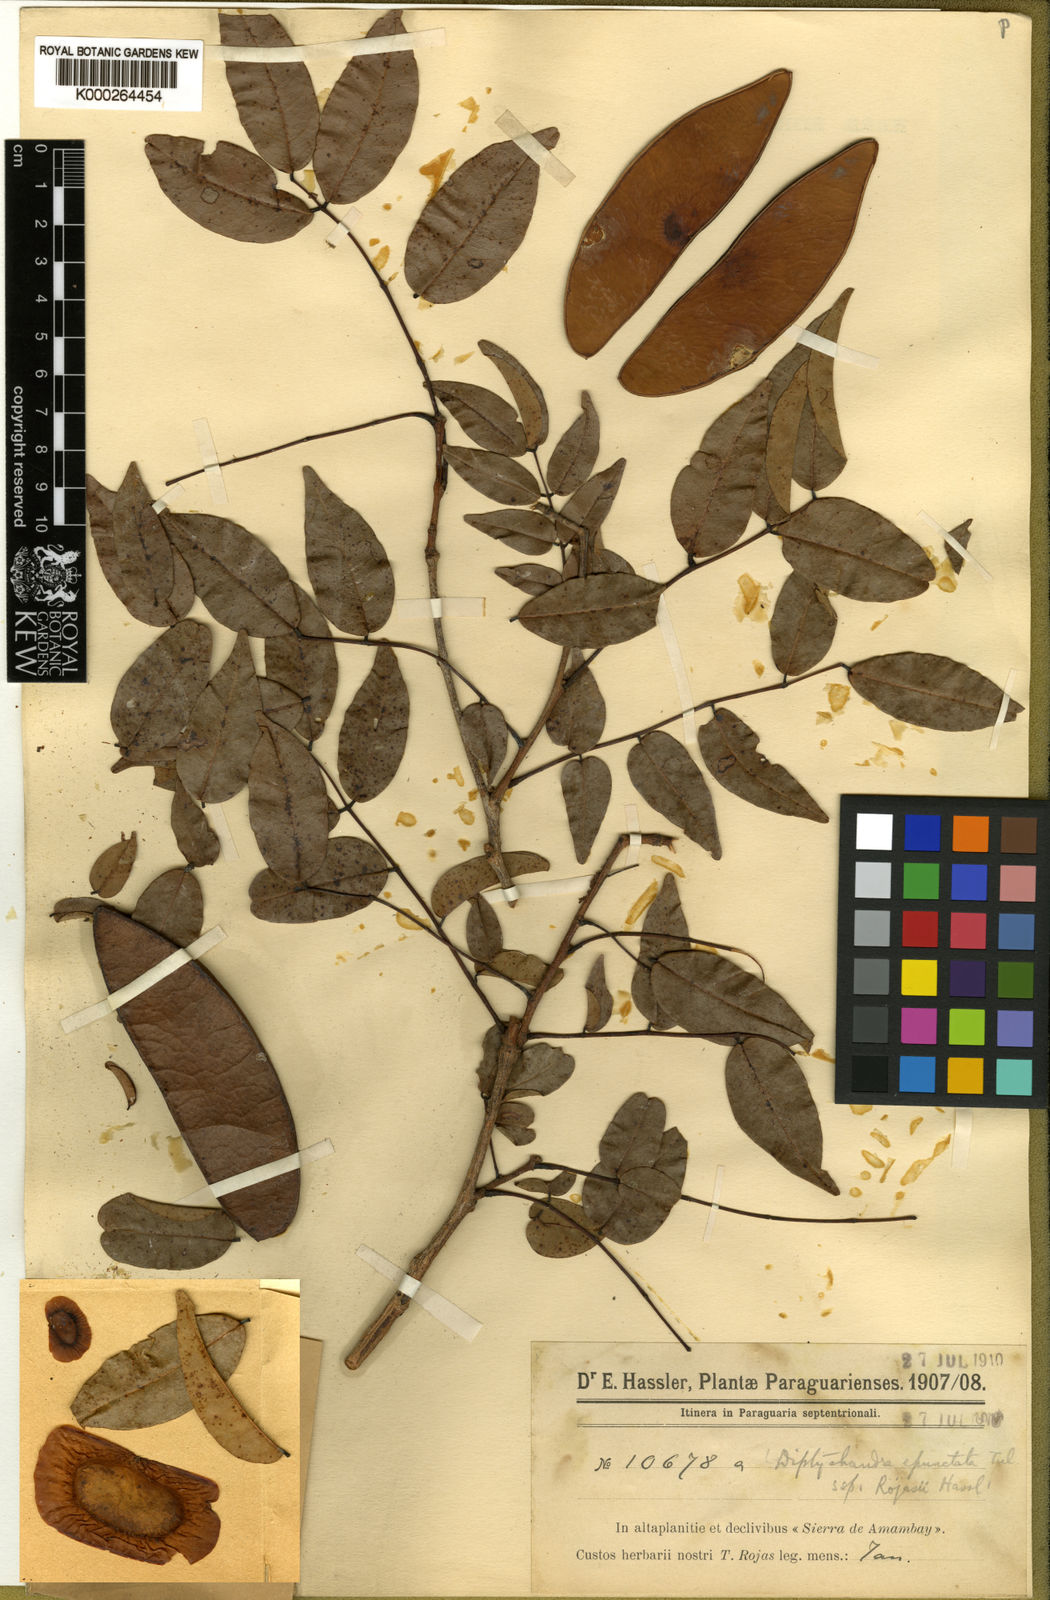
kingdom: Plantae
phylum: Tracheophyta
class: Magnoliopsida
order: Fabales
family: Fabaceae
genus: Diptychandra
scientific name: Diptychandra aurantiaca
